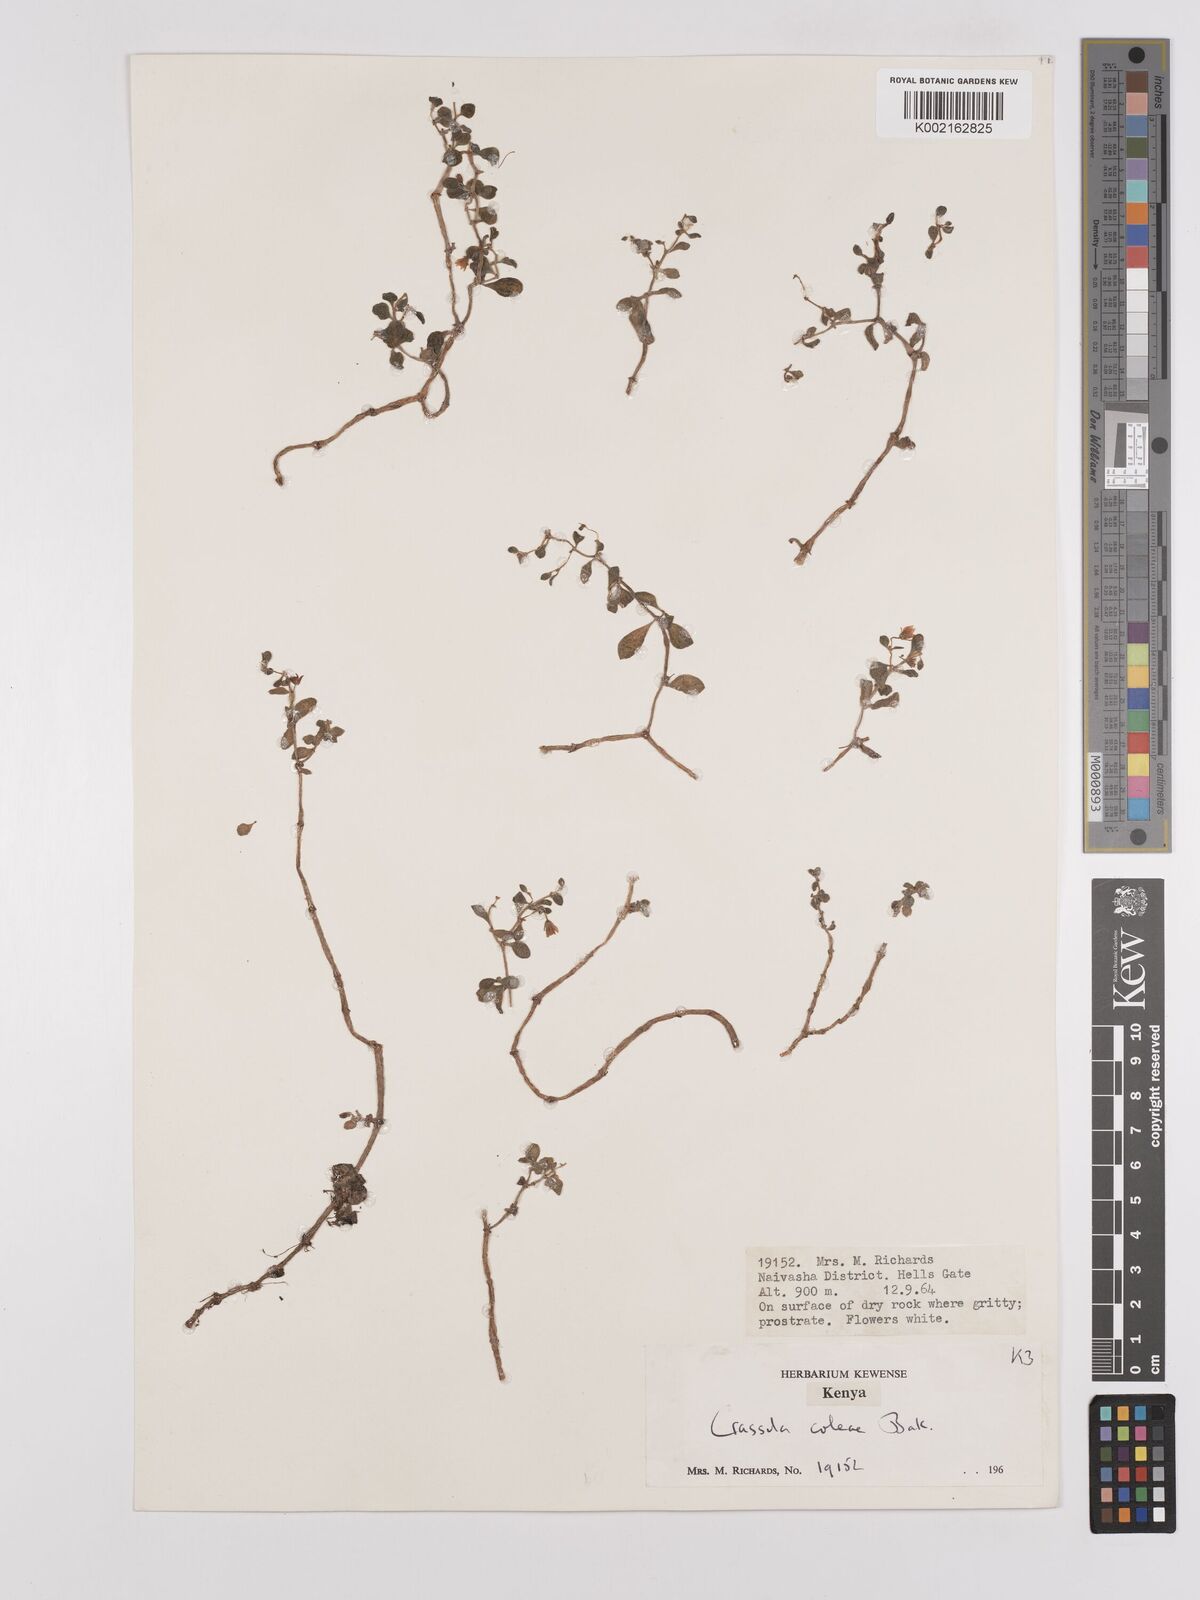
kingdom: Plantae
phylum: Tracheophyta
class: Magnoliopsida
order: Saxifragales
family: Crassulaceae
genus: Crassula
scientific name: Crassula volkensii
